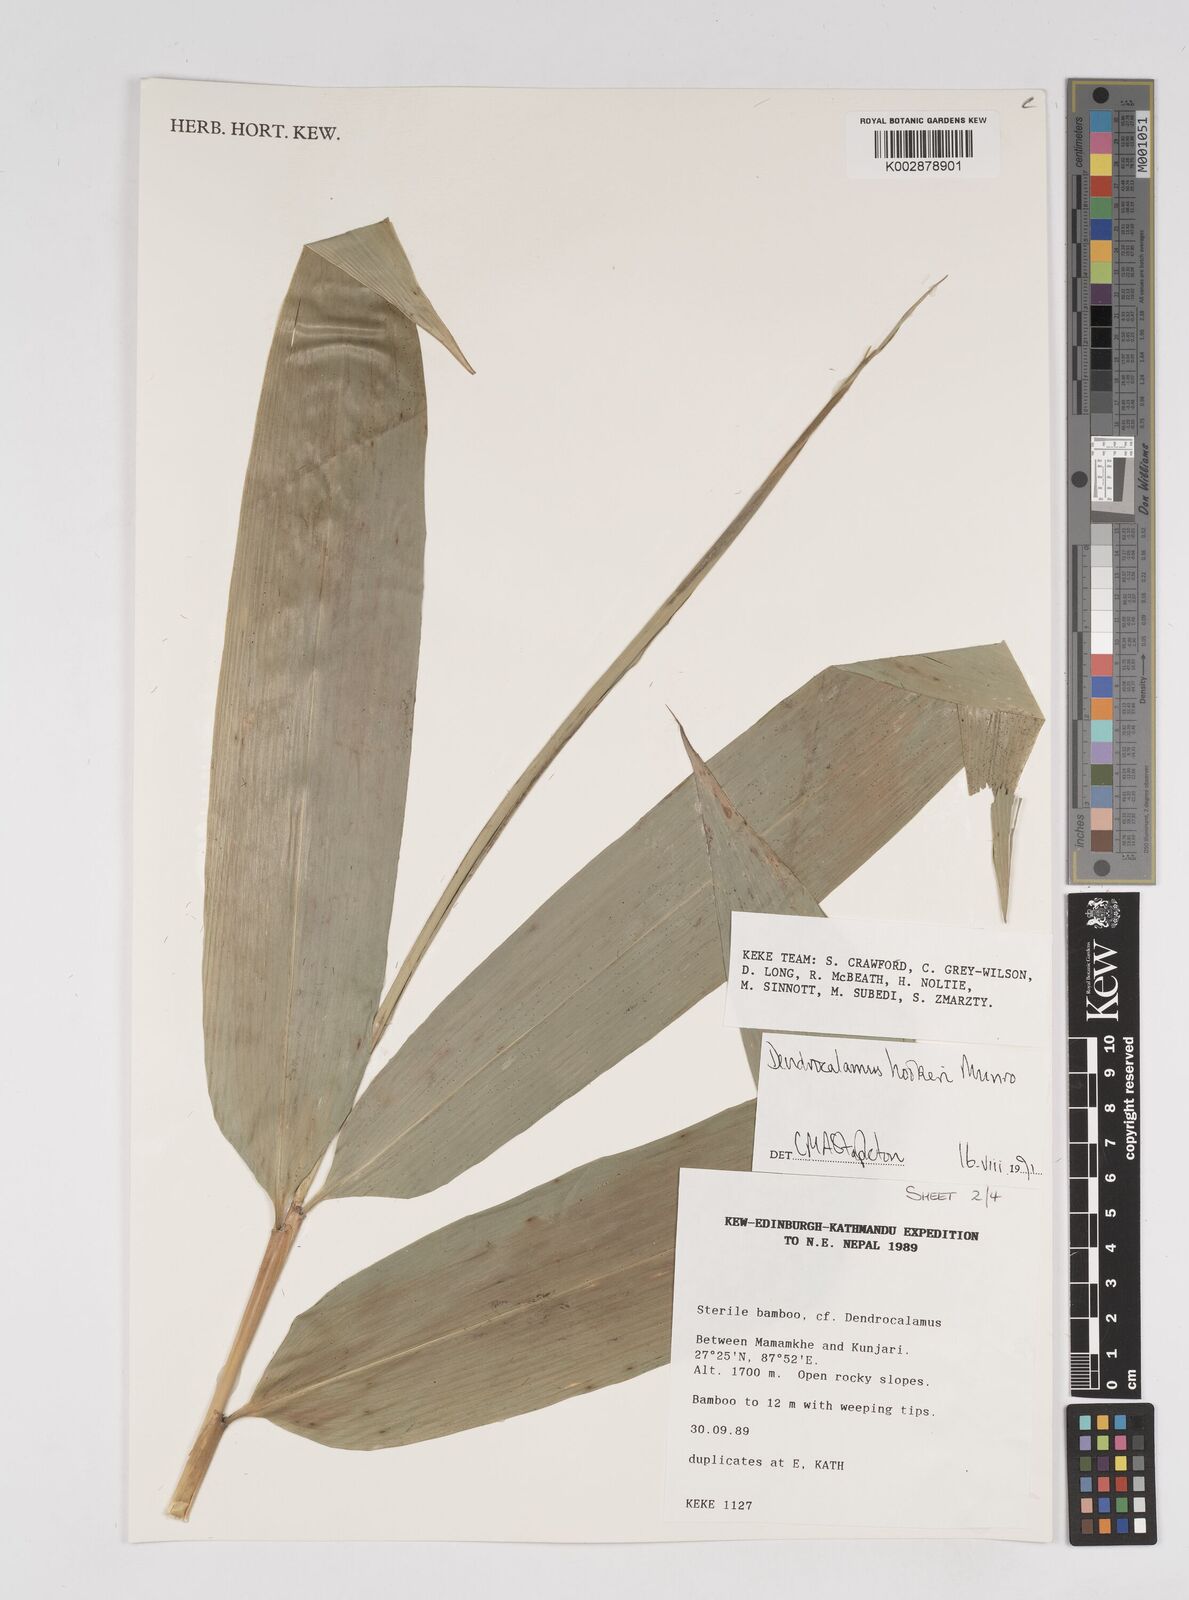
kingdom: Plantae
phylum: Tracheophyta
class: Liliopsida
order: Poales
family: Poaceae
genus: Dendrocalamus
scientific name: Dendrocalamus hookeri
